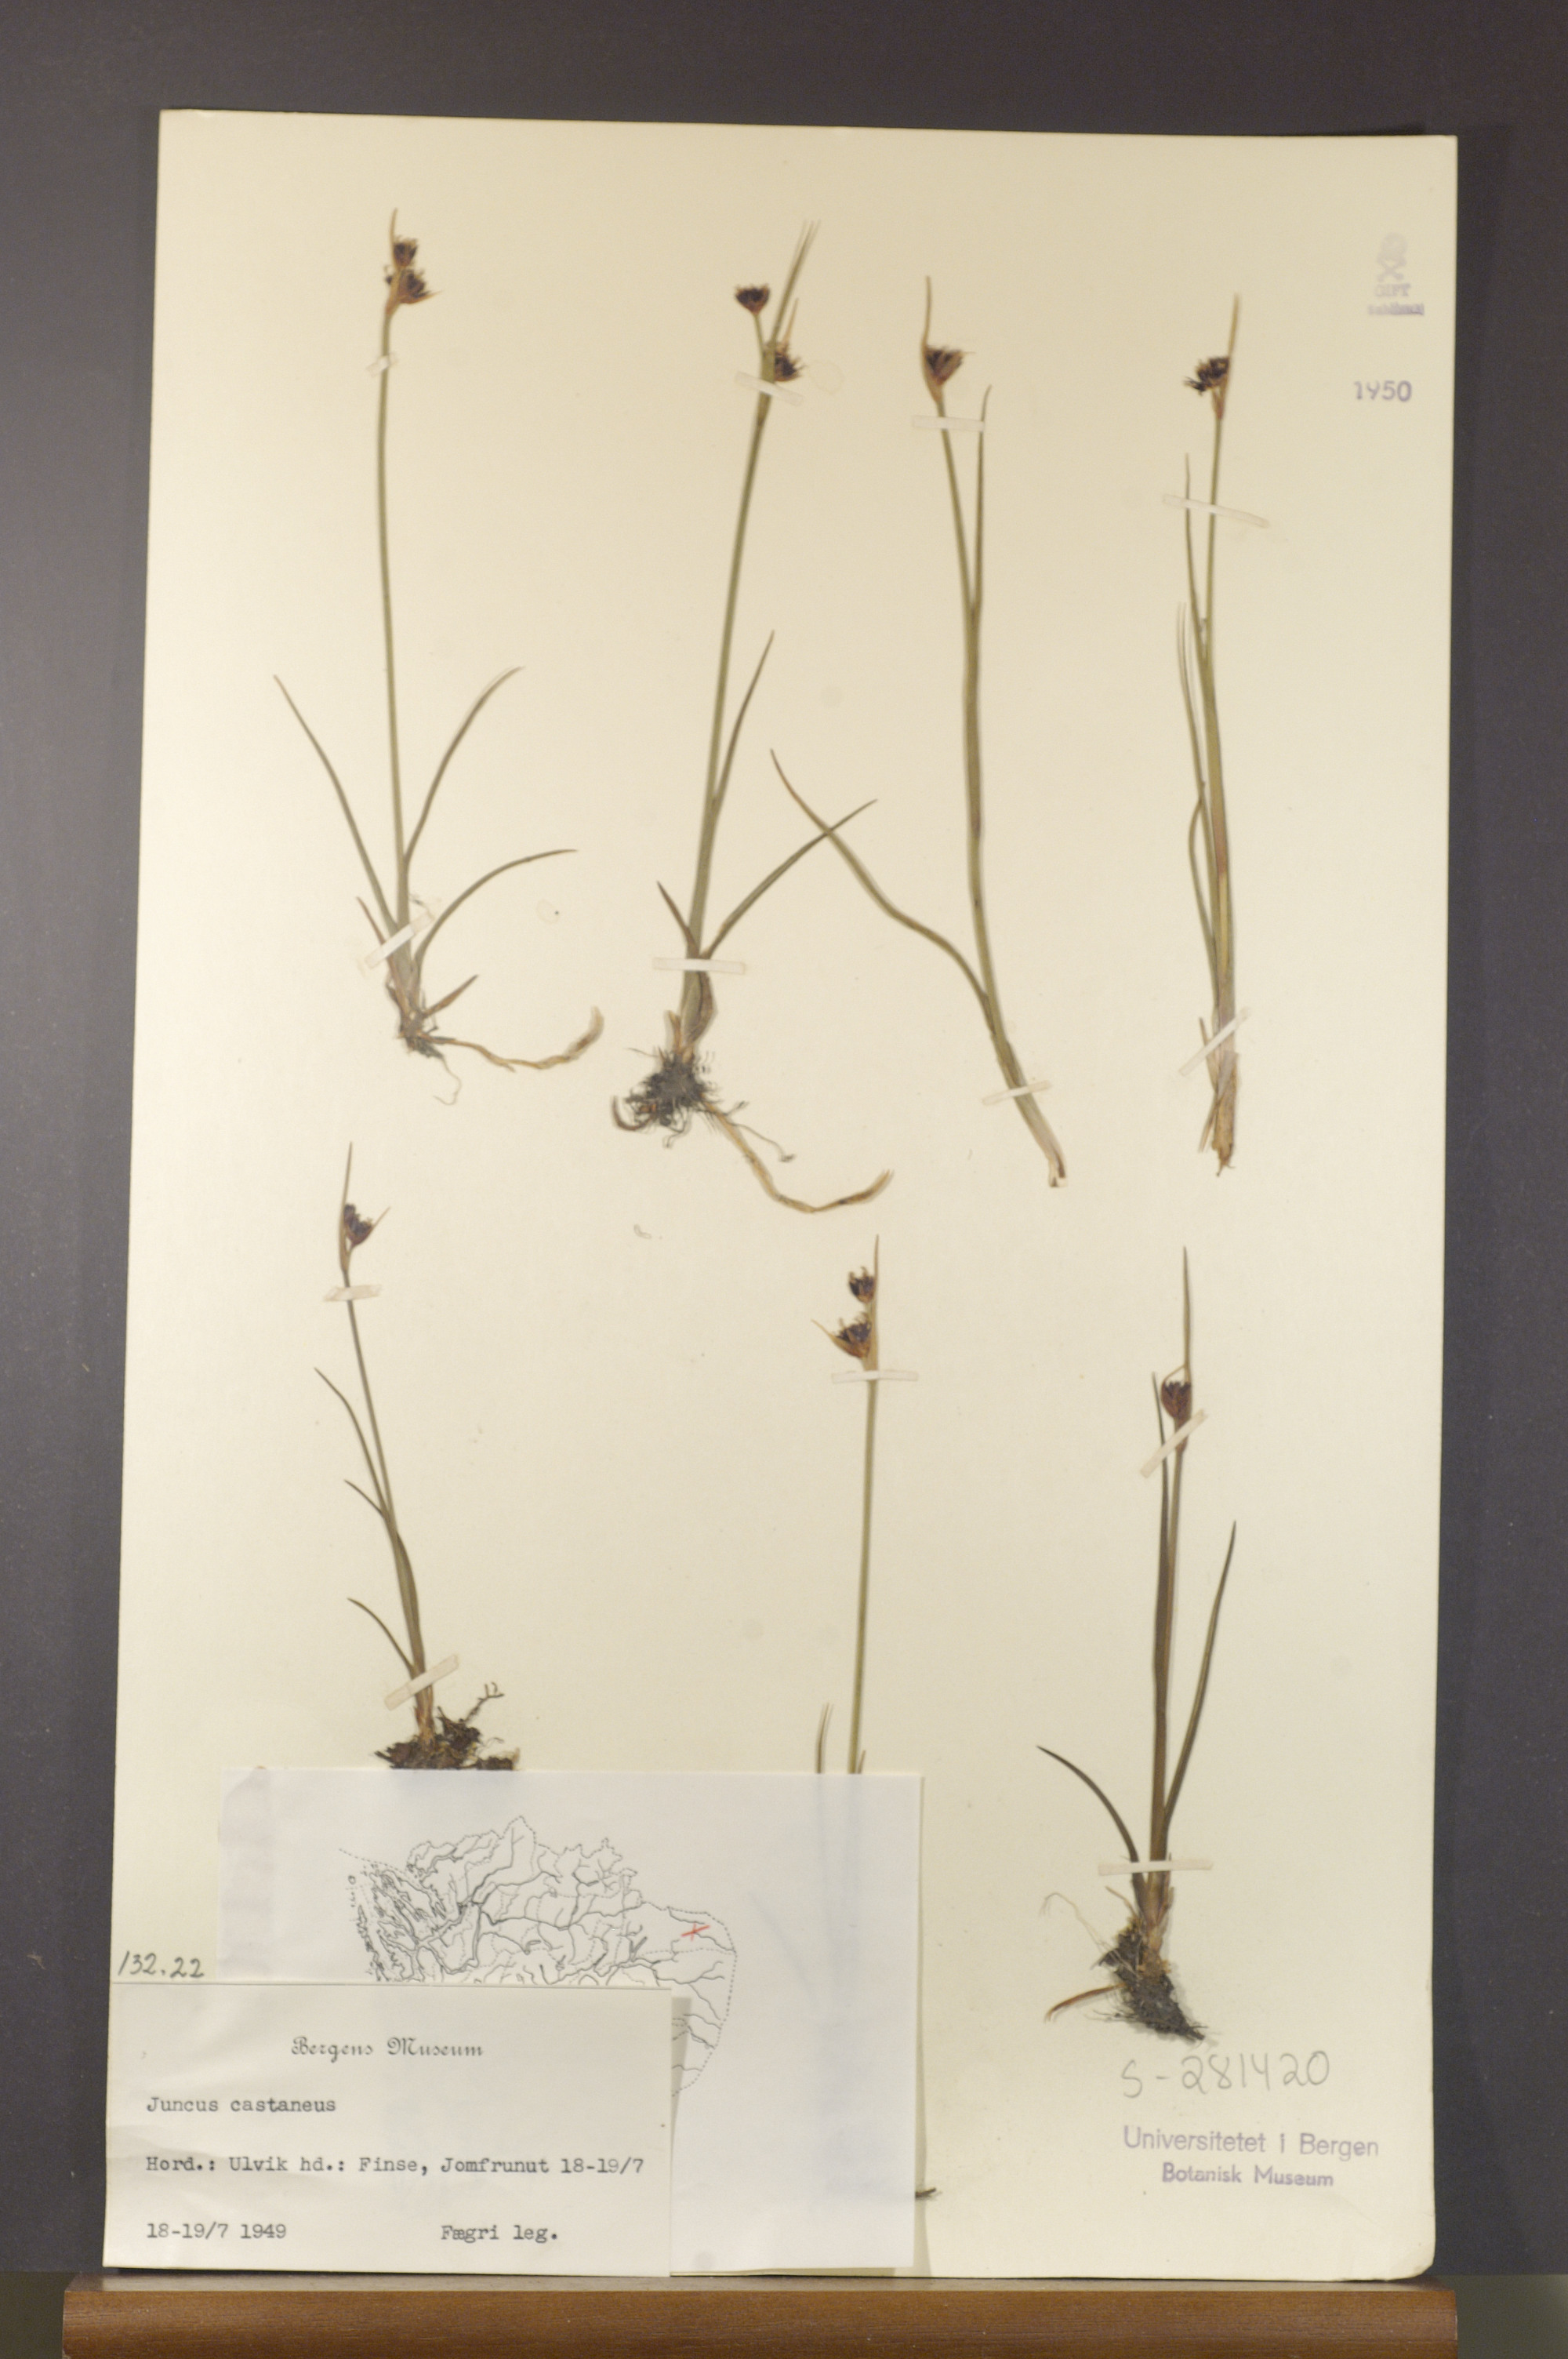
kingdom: Plantae
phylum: Tracheophyta
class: Liliopsida
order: Poales
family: Juncaceae
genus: Juncus
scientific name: Juncus castaneus
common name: Chestnut rush
